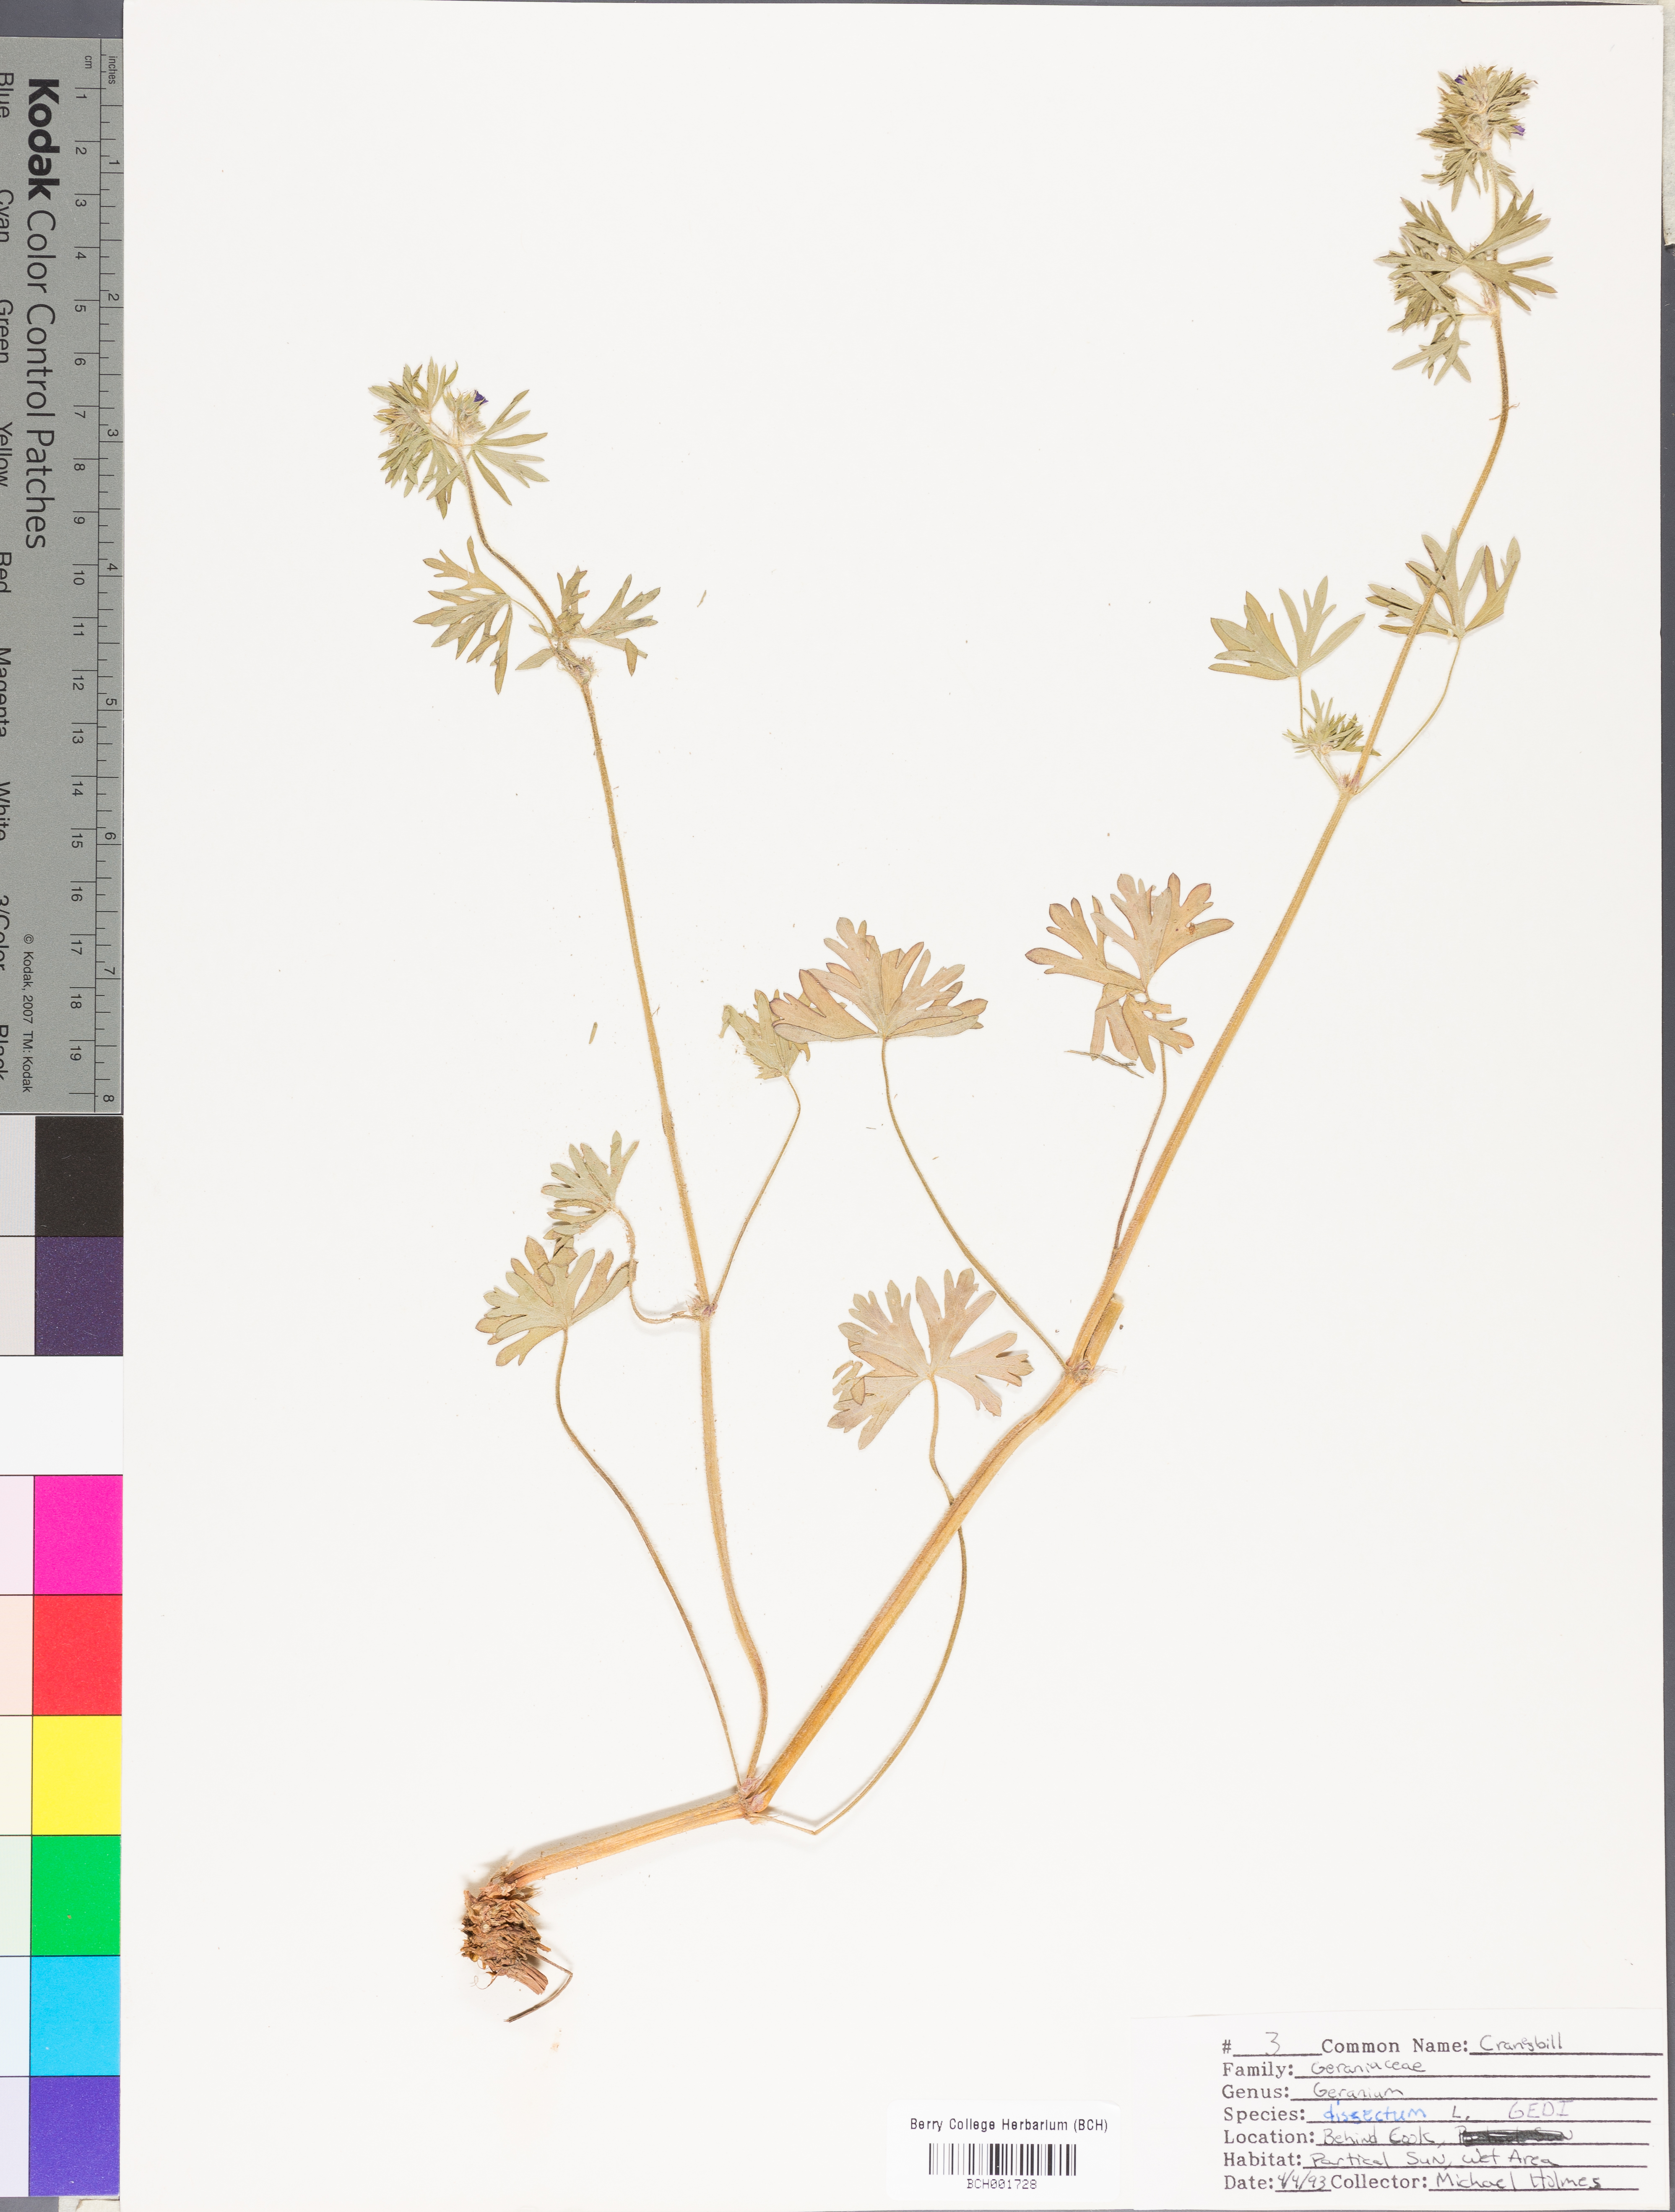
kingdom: Plantae
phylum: Tracheophyta
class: Magnoliopsida
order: Geraniales
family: Geraniaceae
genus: Geranium
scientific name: Geranium dissectum
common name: Cut-leaved crane's-bill
